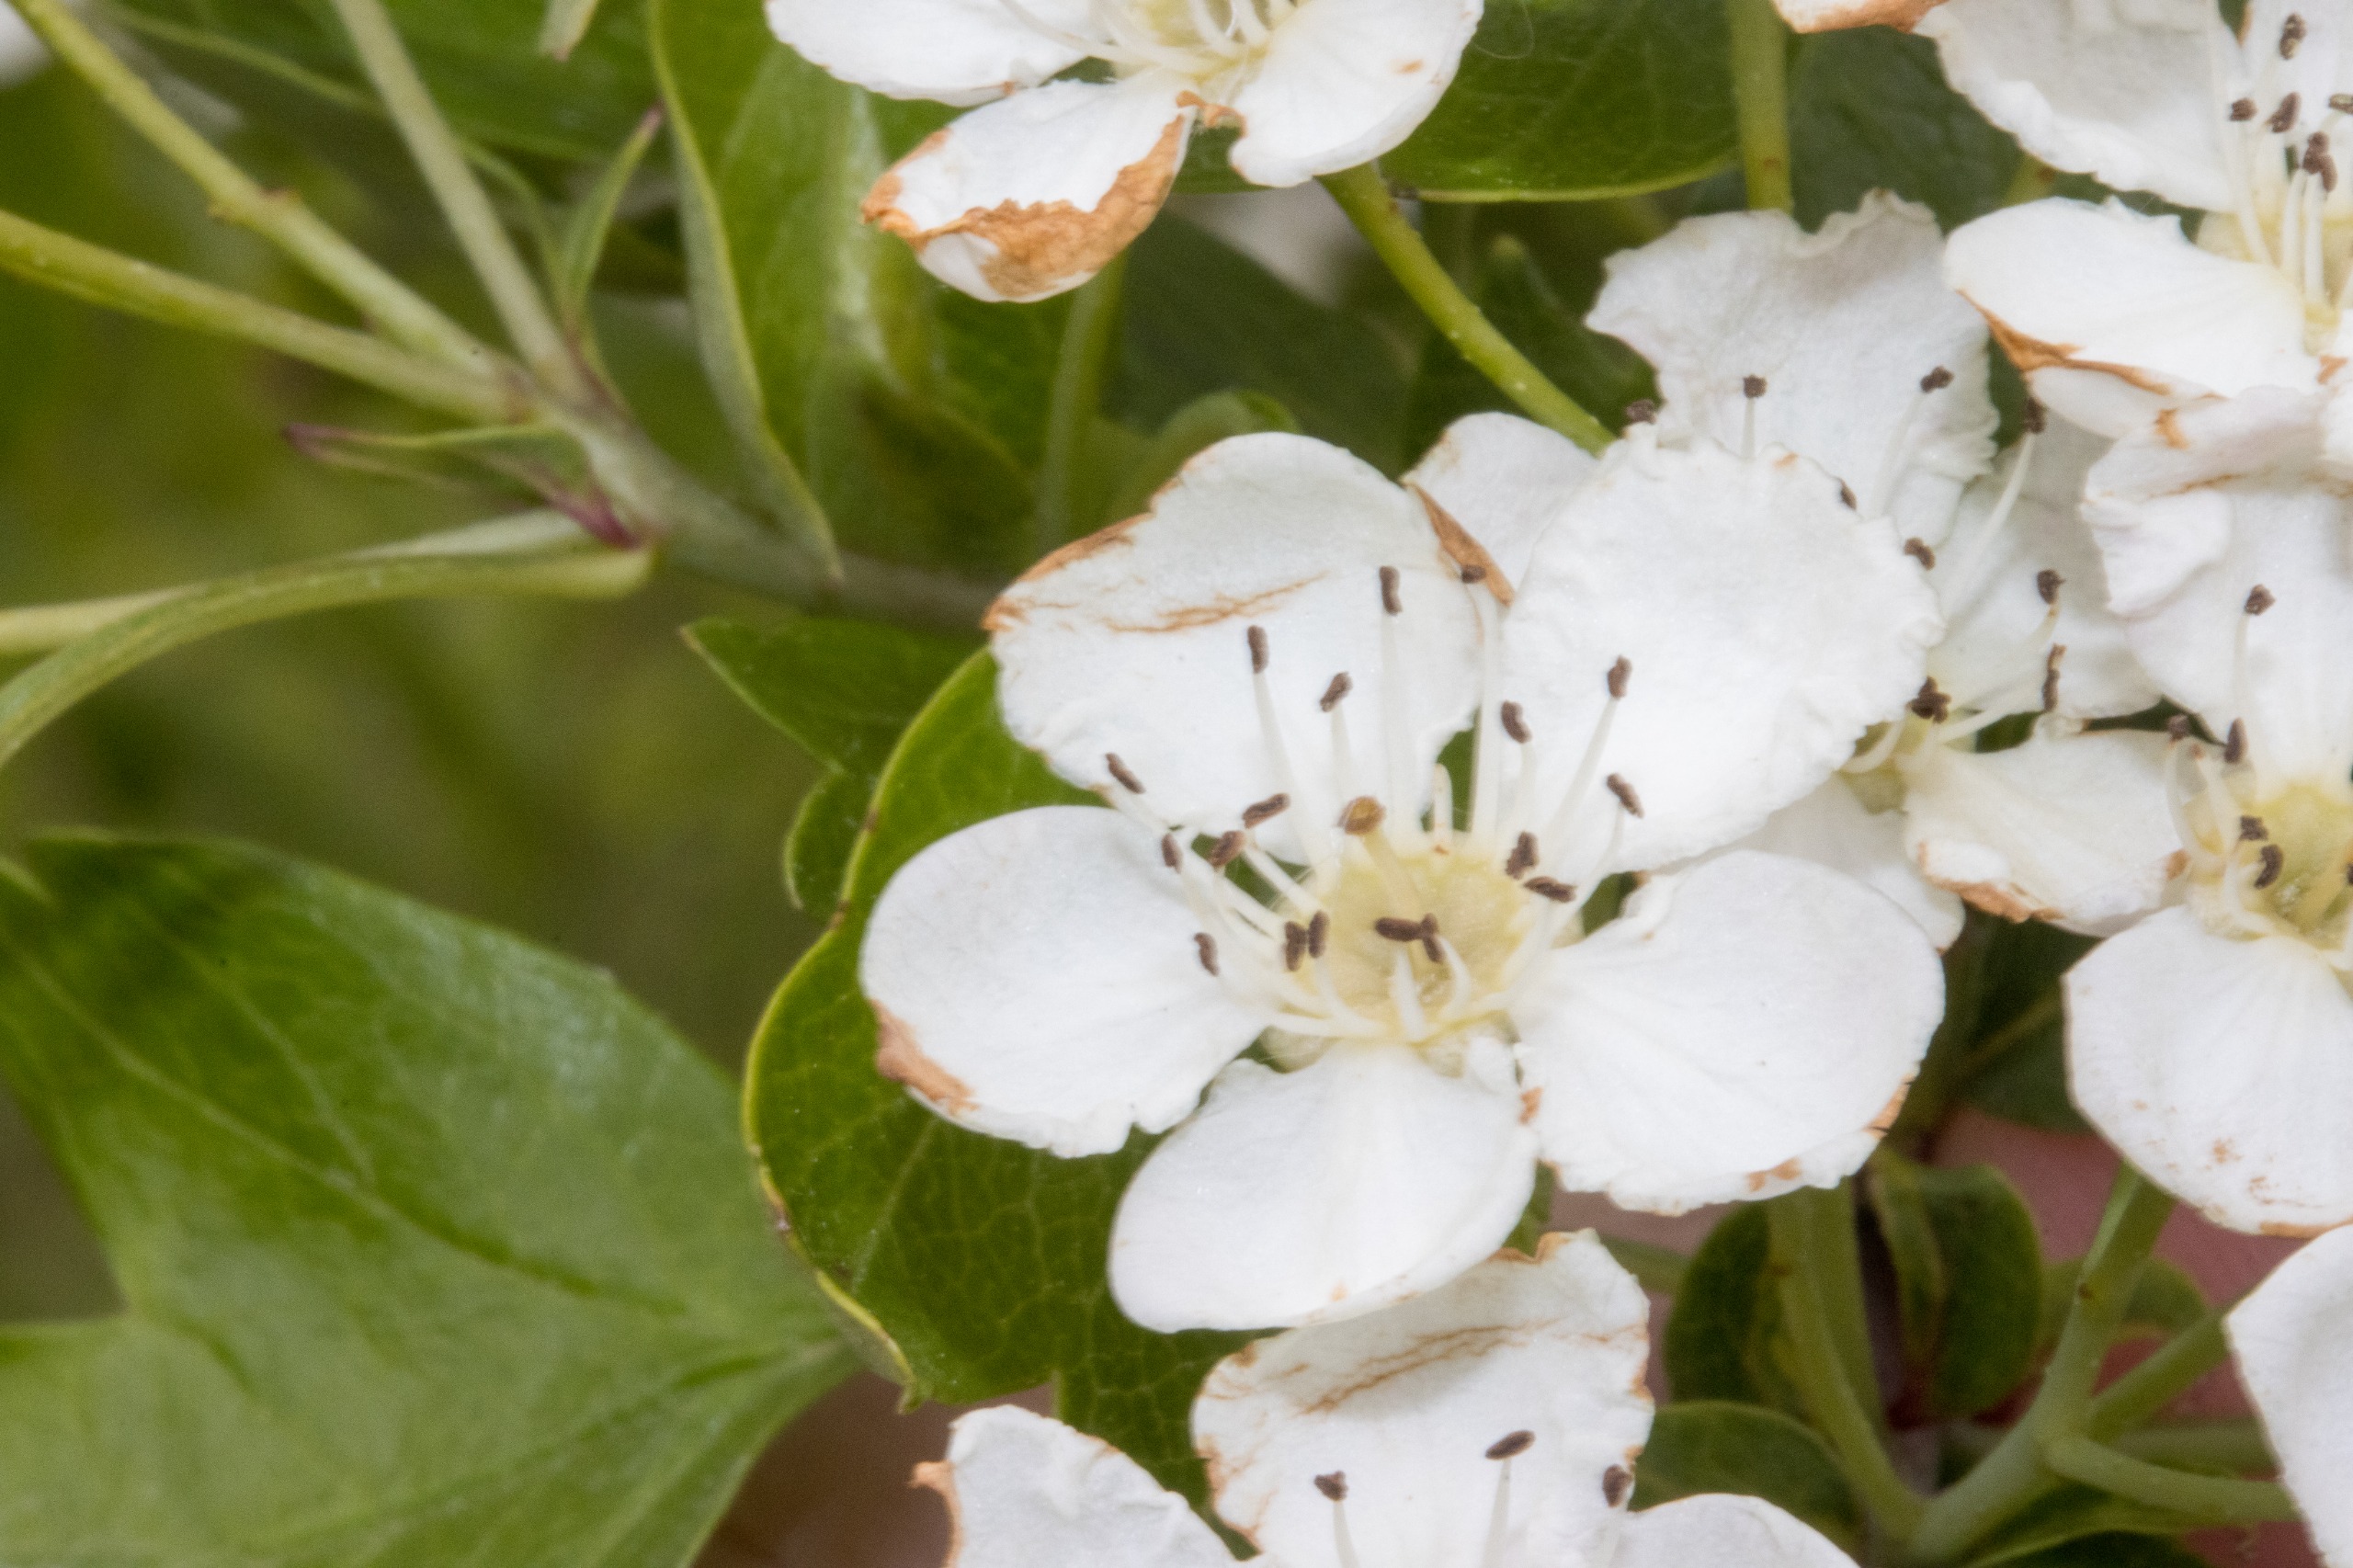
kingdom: Plantae
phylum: Tracheophyta
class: Magnoliopsida
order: Rosales
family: Rosaceae
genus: Crataegus
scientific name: Crataegus media
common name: Almindelig hvidtjørn × engriflet hvidtjørn
